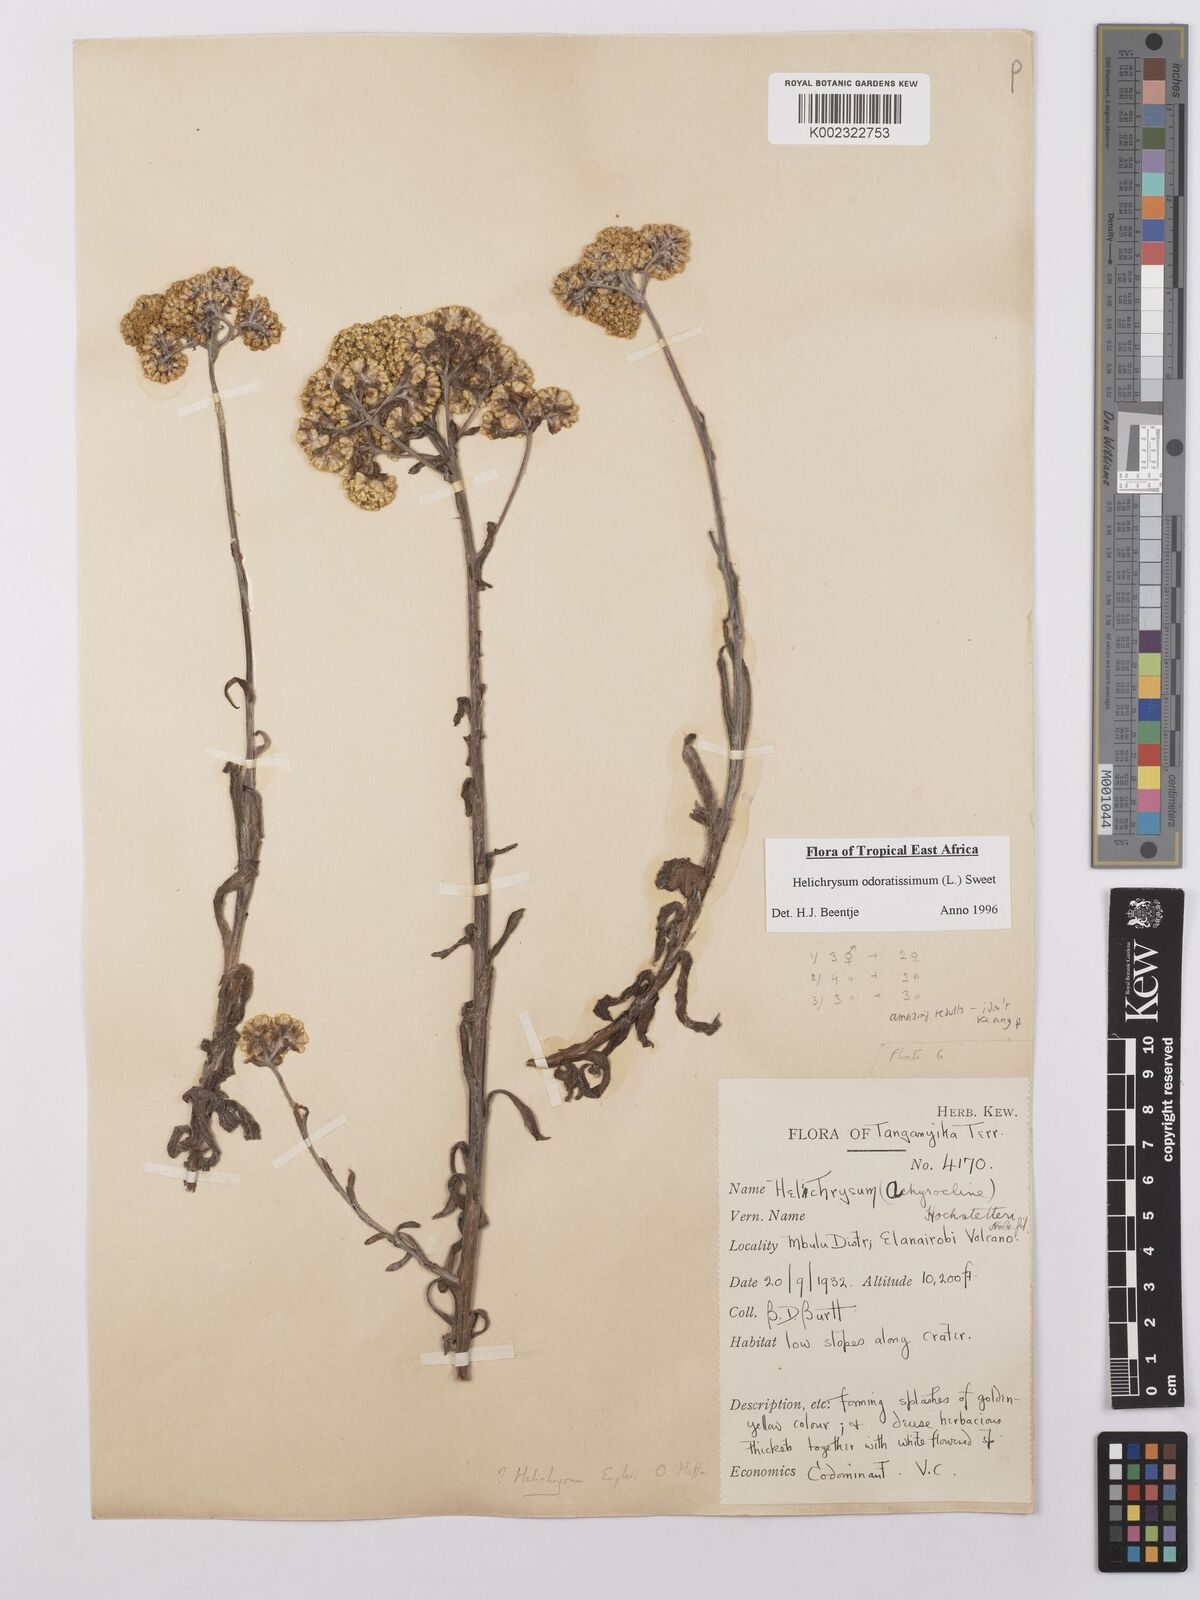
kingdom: Plantae
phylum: Tracheophyta
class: Magnoliopsida
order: Asterales
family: Asteraceae
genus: Helichrysum
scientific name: Helichrysum odoratissimum
